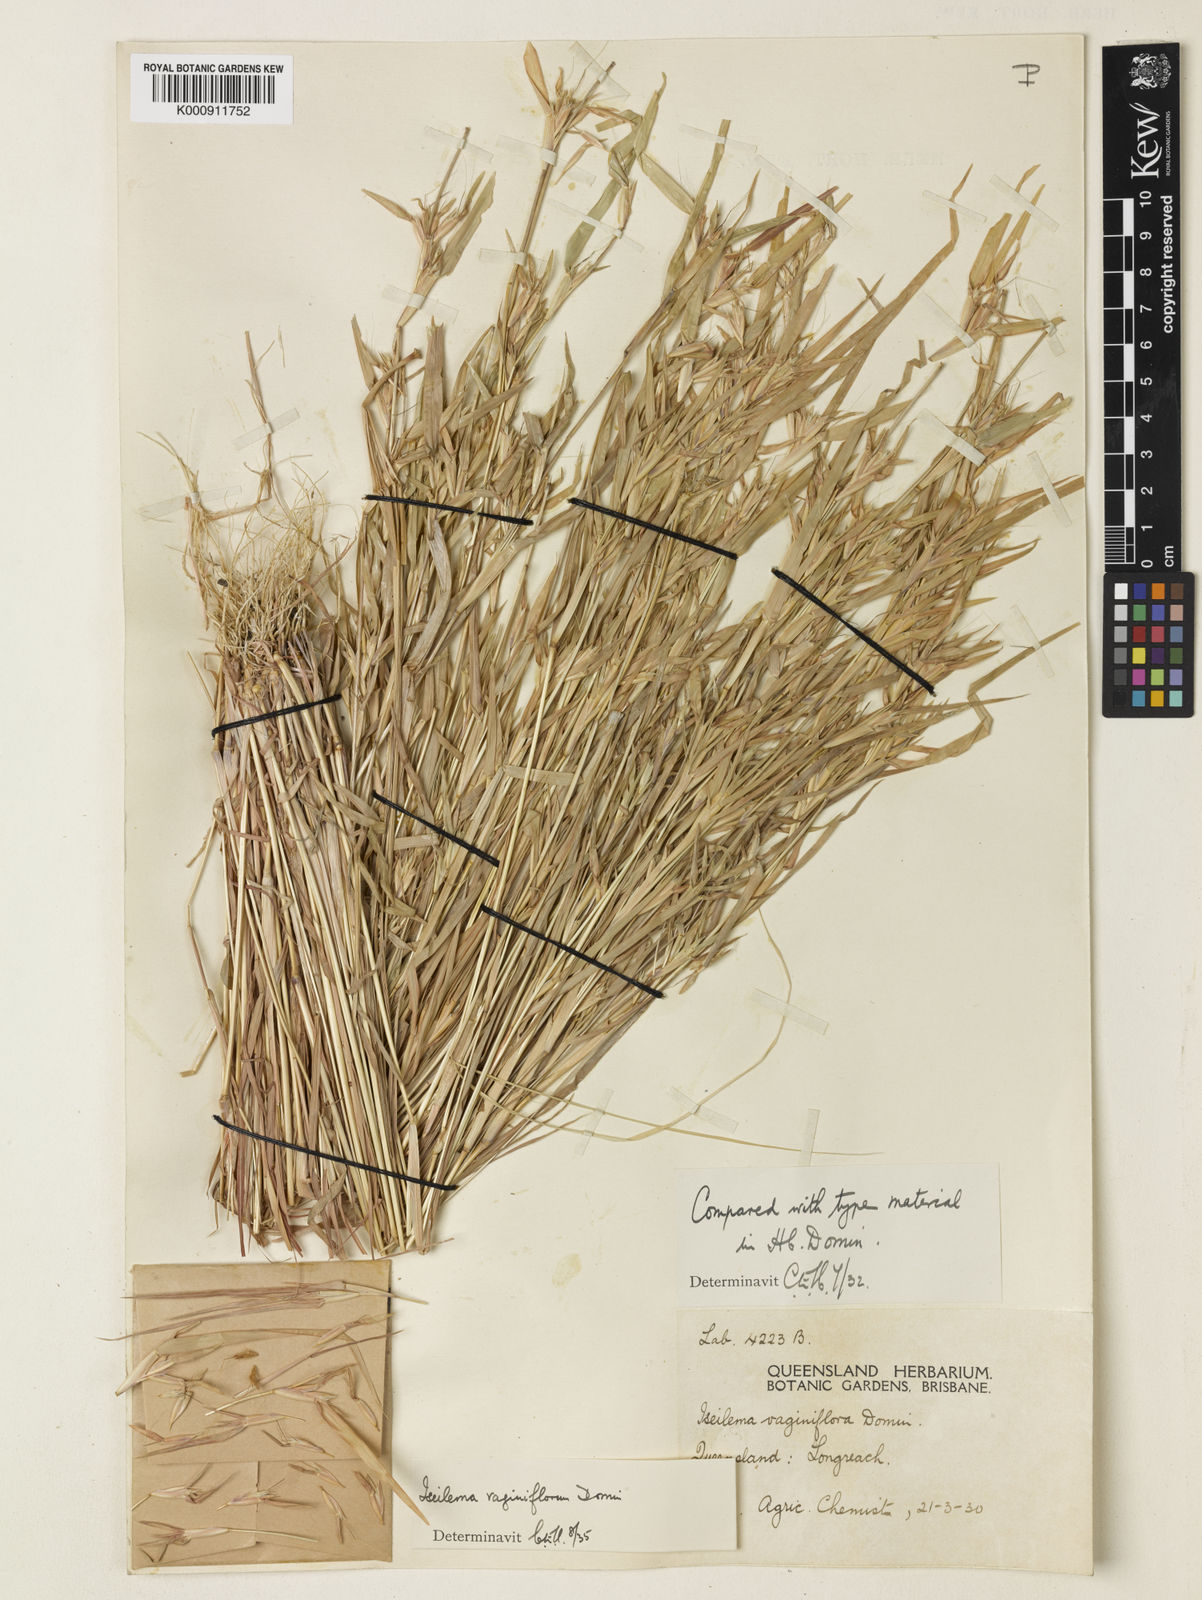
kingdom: Plantae
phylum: Tracheophyta
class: Liliopsida
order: Poales
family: Poaceae
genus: Iseilema
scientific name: Iseilema vaginiflorum
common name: Red flinders grass
